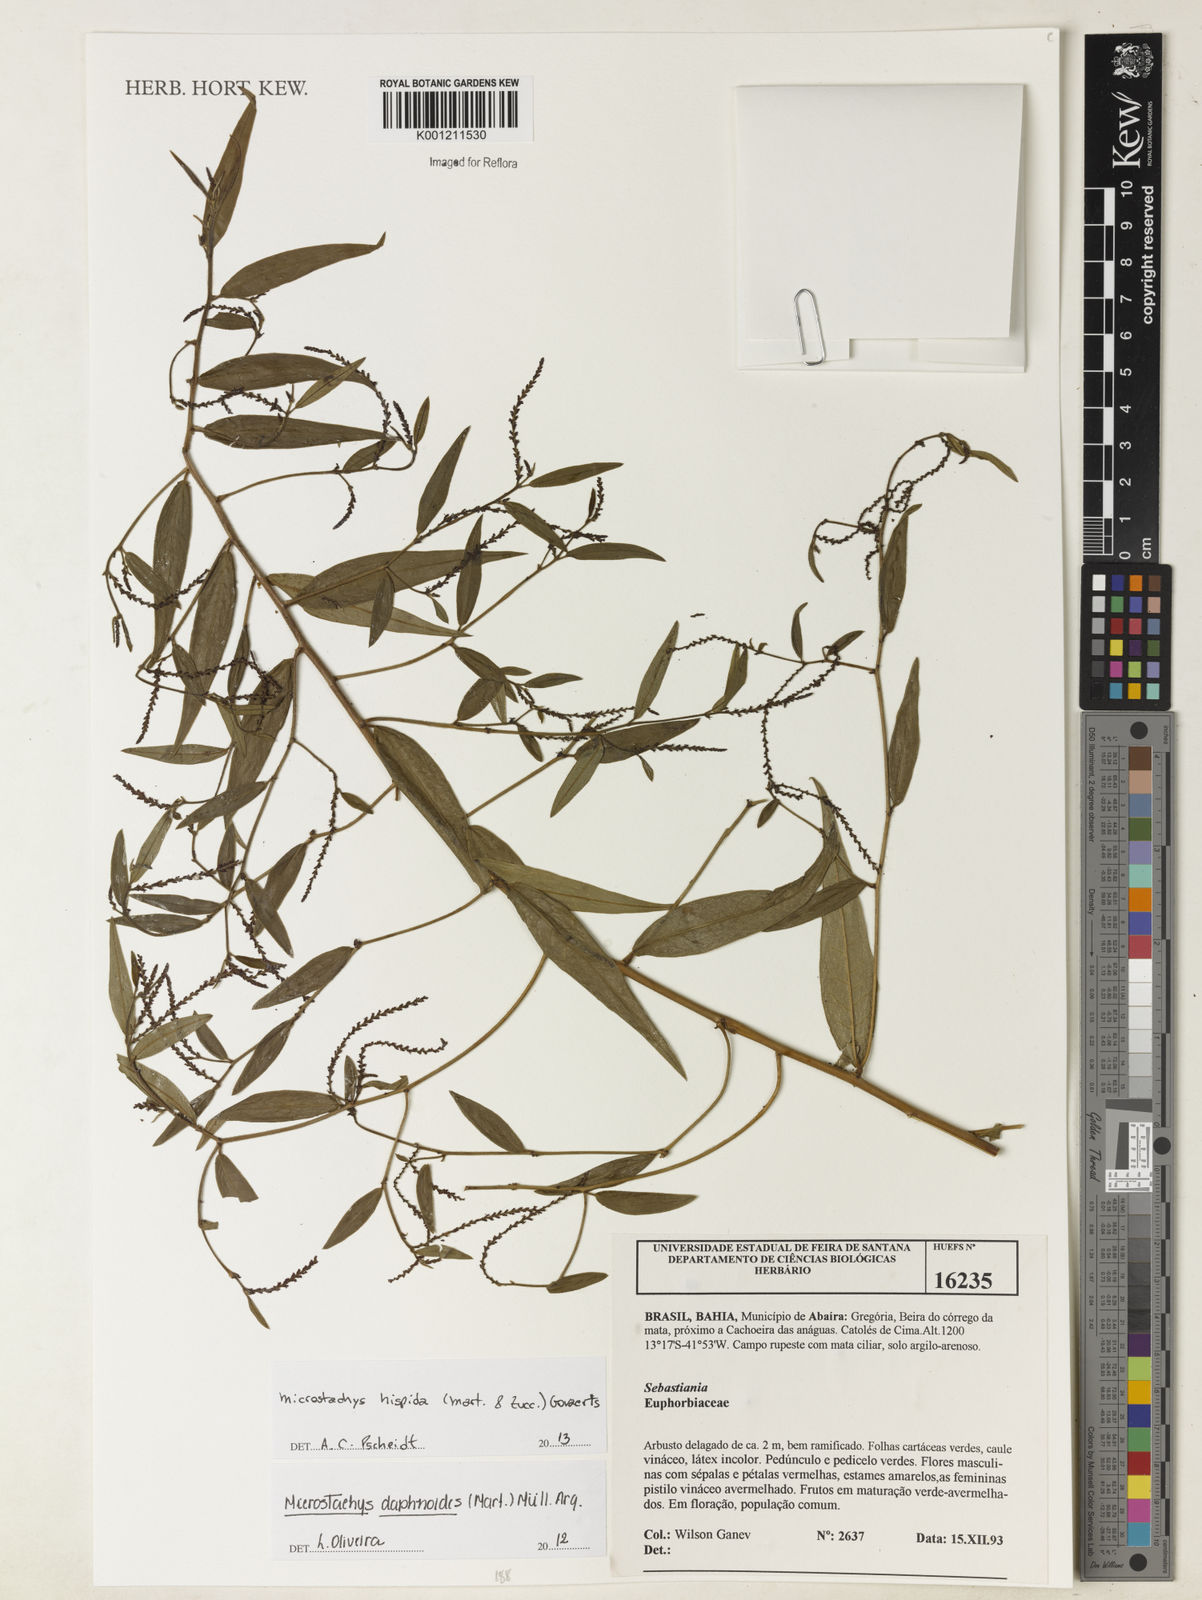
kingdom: Plantae
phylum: Tracheophyta
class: Magnoliopsida
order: Malpighiales
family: Euphorbiaceae
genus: Microstachys
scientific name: Microstachys hispida
